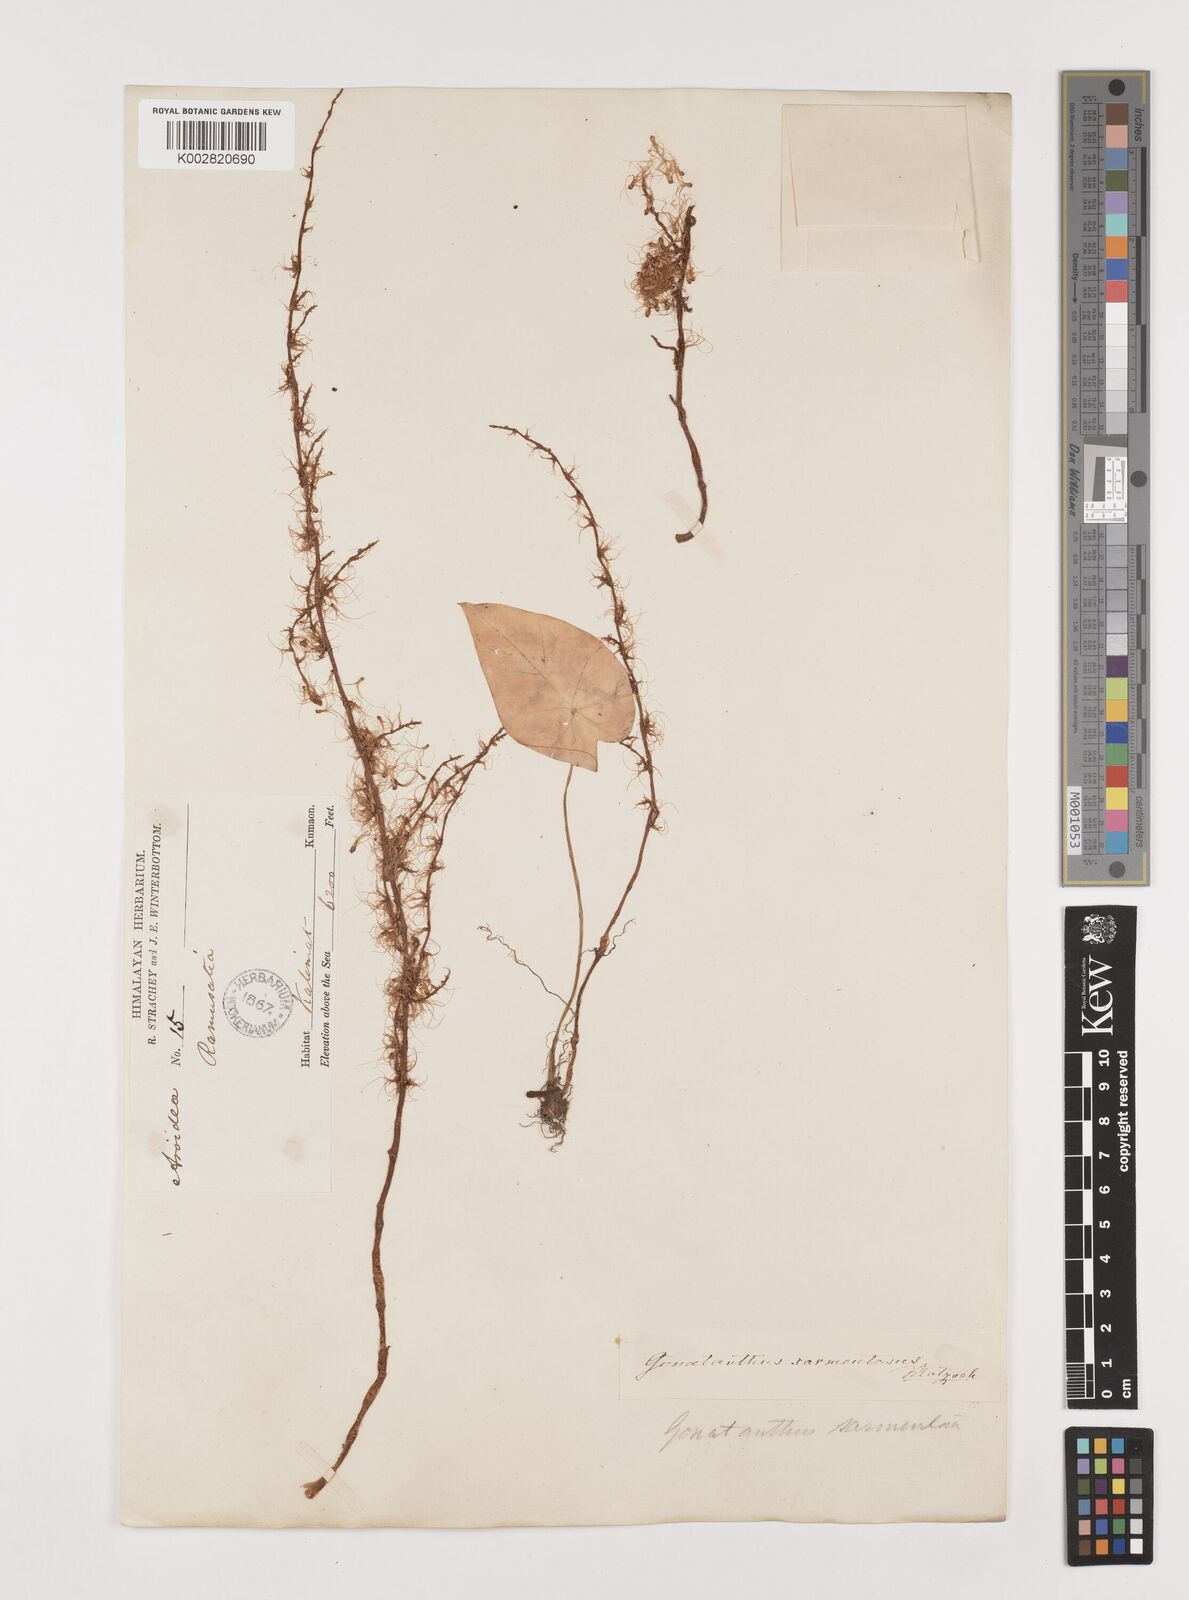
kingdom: Plantae
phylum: Tracheophyta
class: Liliopsida
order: Alismatales
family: Araceae
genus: Remusatia
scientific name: Remusatia pumila
